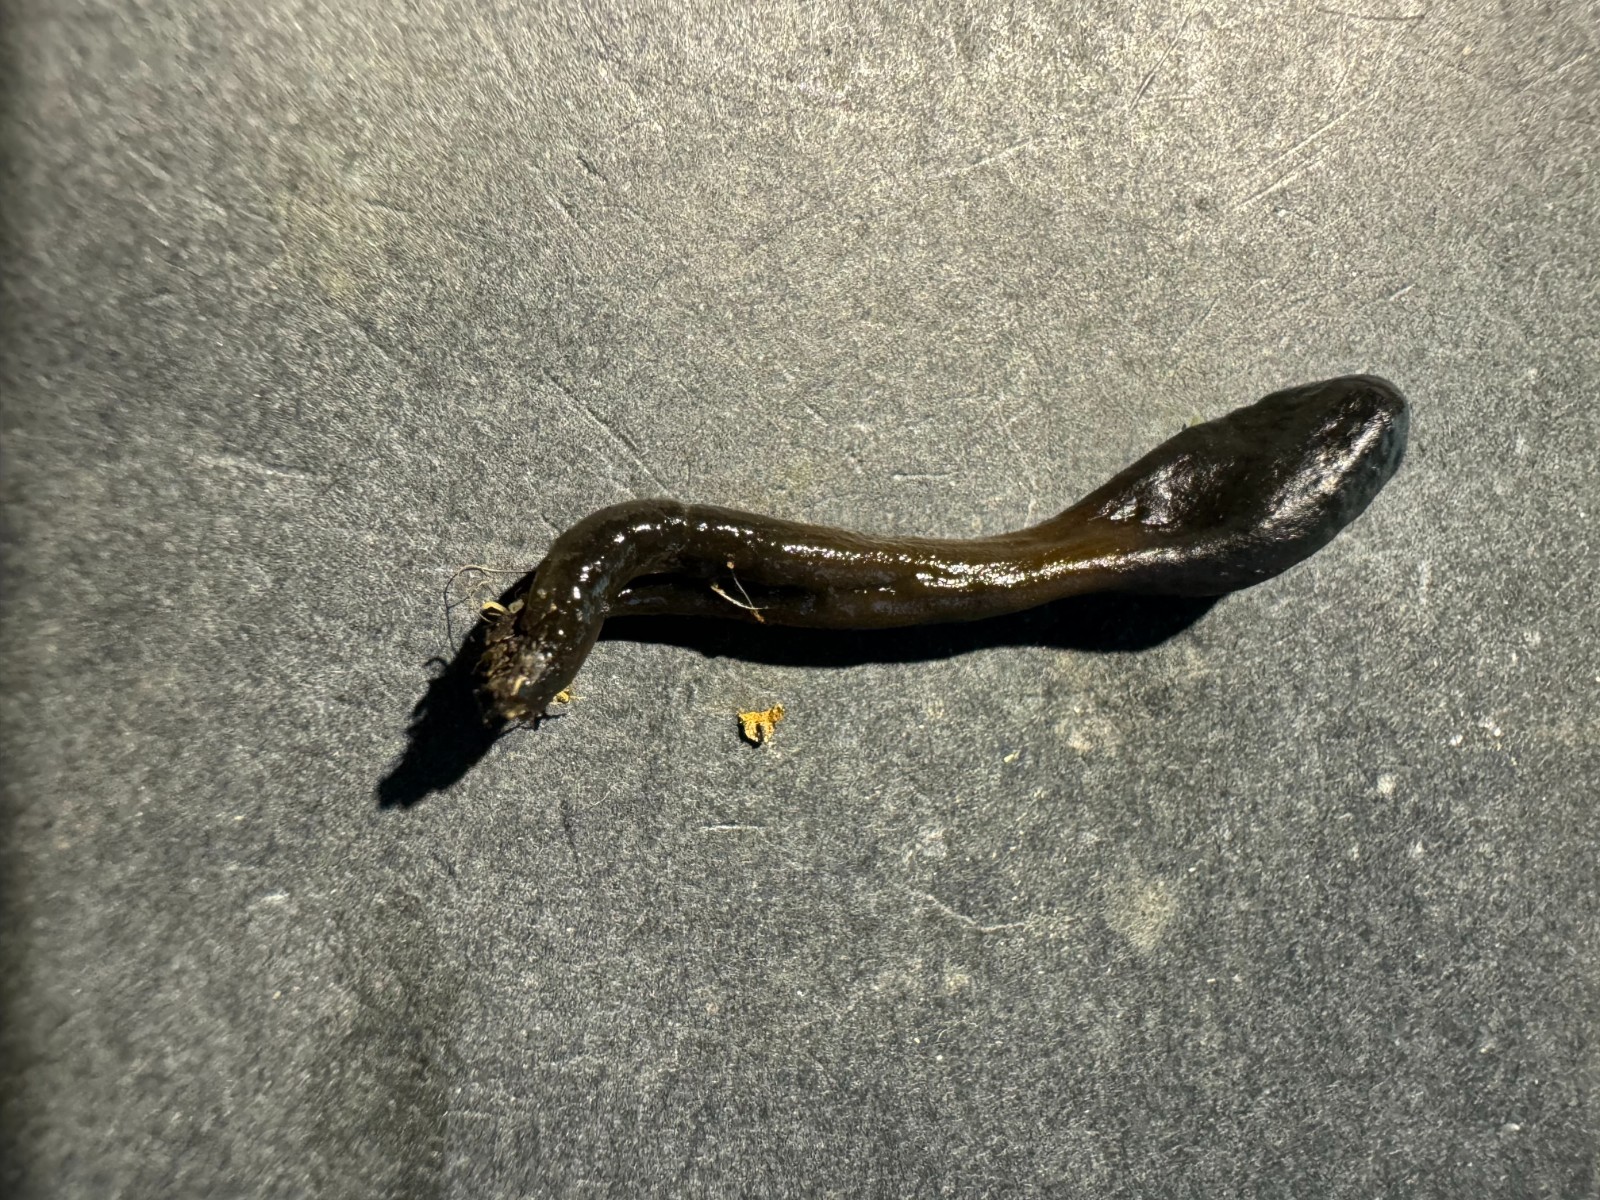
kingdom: Fungi
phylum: Ascomycota
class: Geoglossomycetes
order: Geoglossales
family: Geoglossaceae
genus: Glutinoglossum
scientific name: Glutinoglossum glutinosum
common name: slimet jordtunge
